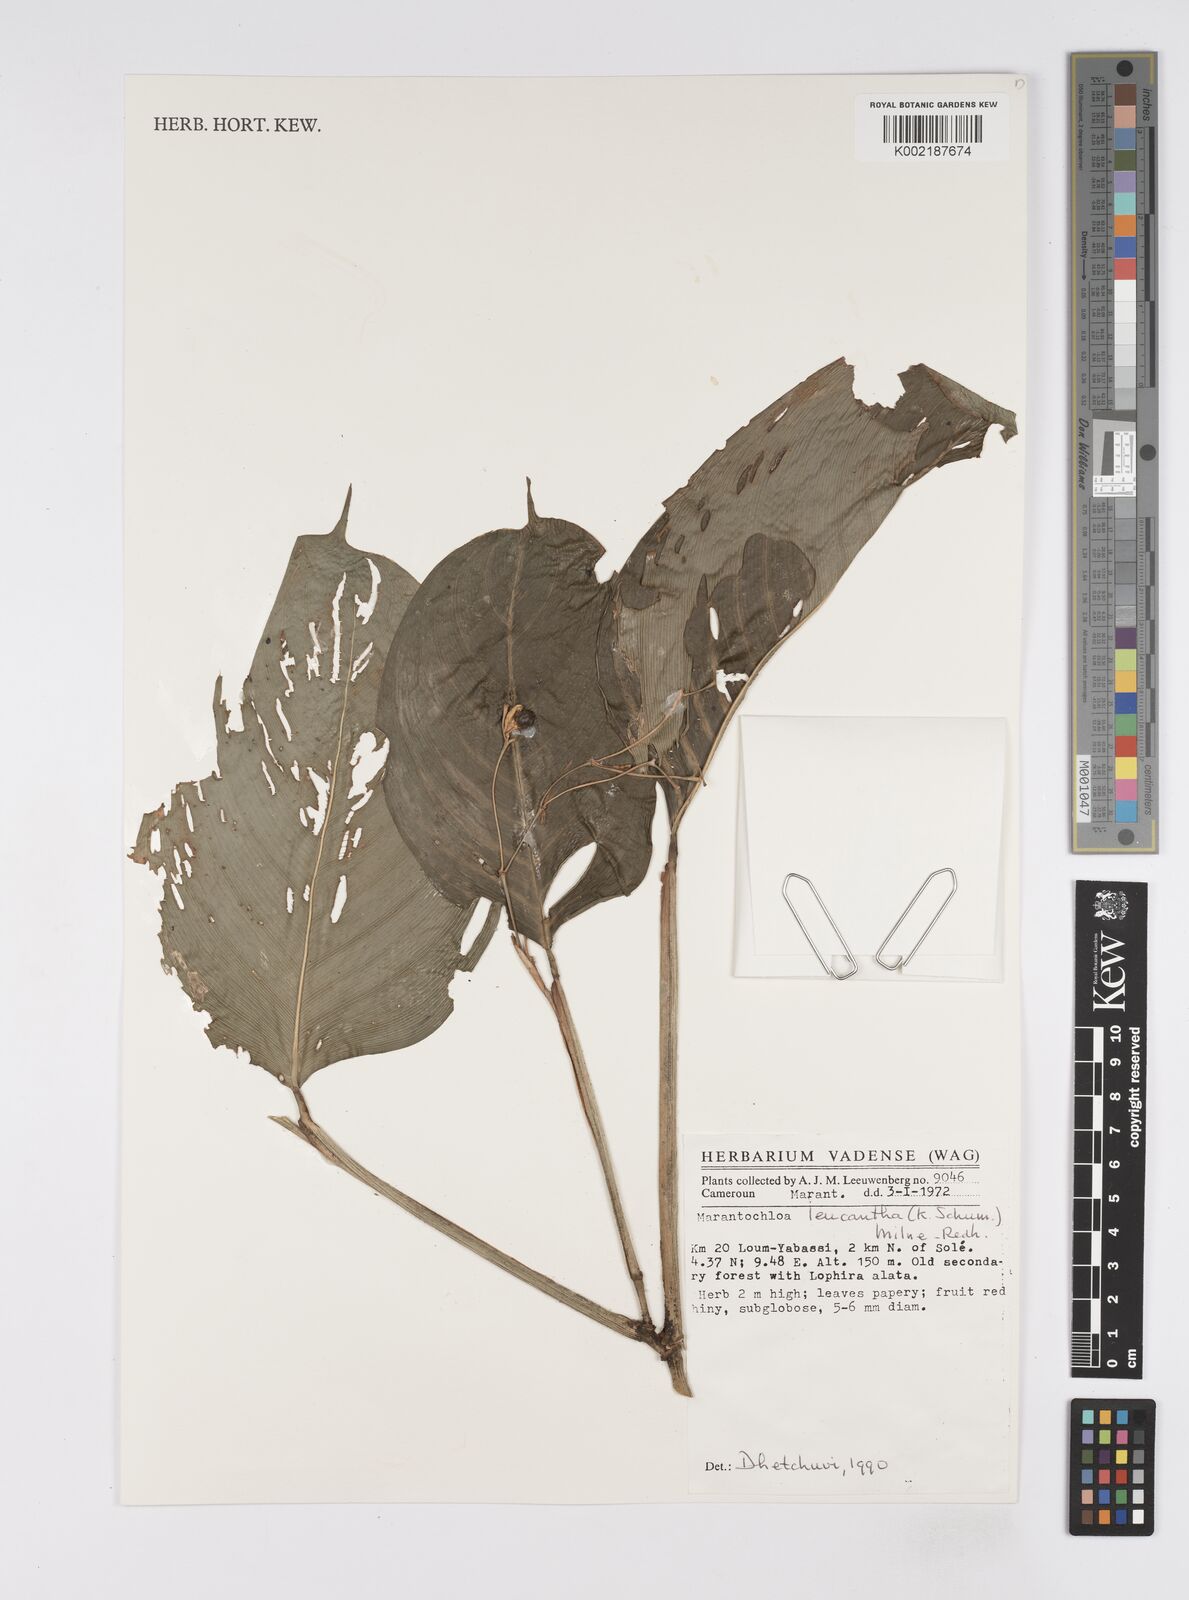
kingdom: Plantae
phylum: Tracheophyta
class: Liliopsida
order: Zingiberales
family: Marantaceae
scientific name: Marantaceae
